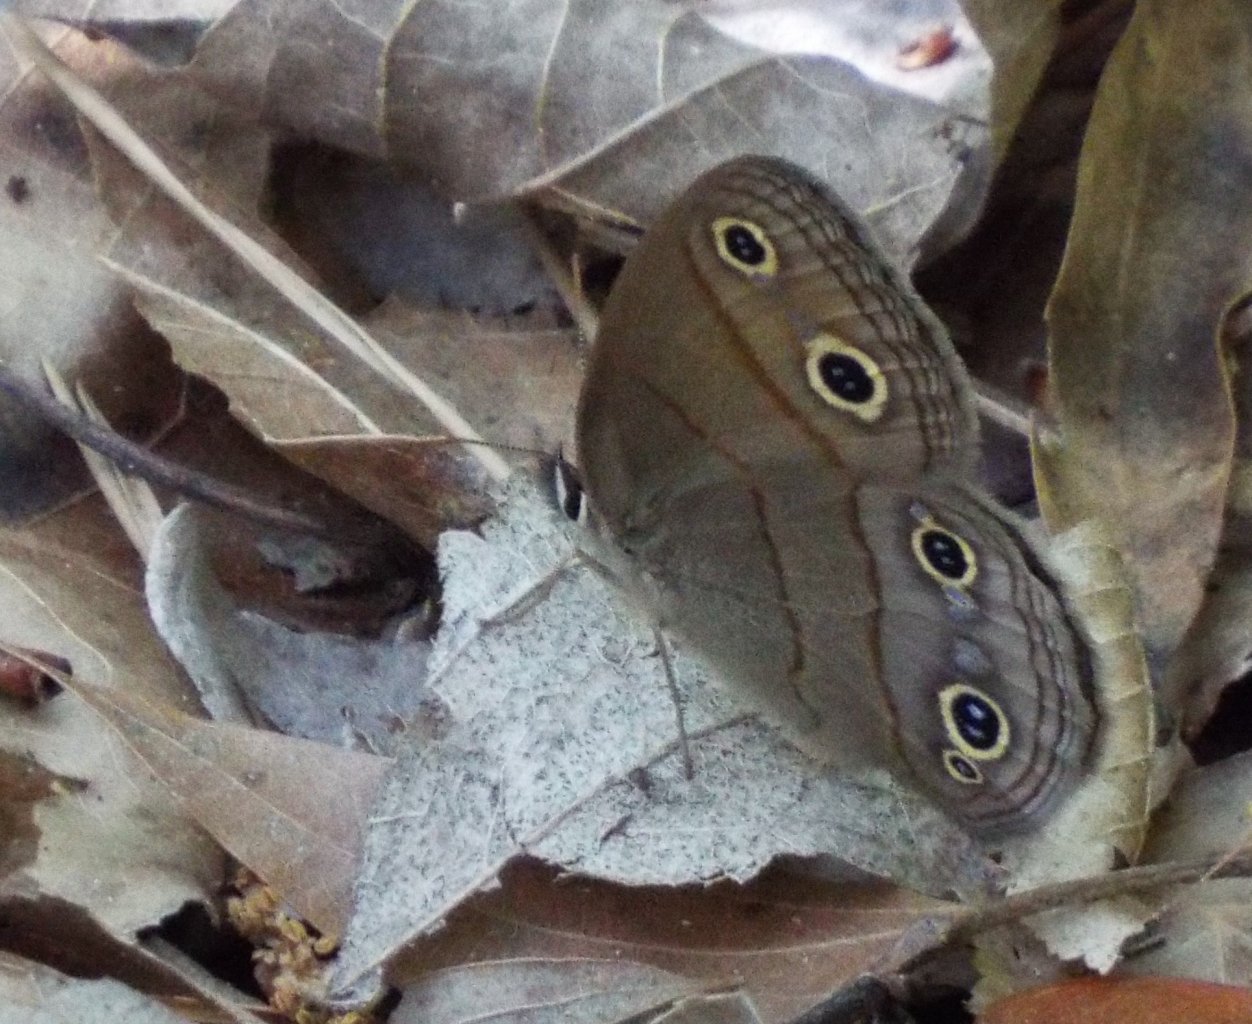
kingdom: Animalia
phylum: Arthropoda
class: Insecta
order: Lepidoptera
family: Nymphalidae
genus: Euptychia
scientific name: Euptychia cymela
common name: Little Wood Satyr
